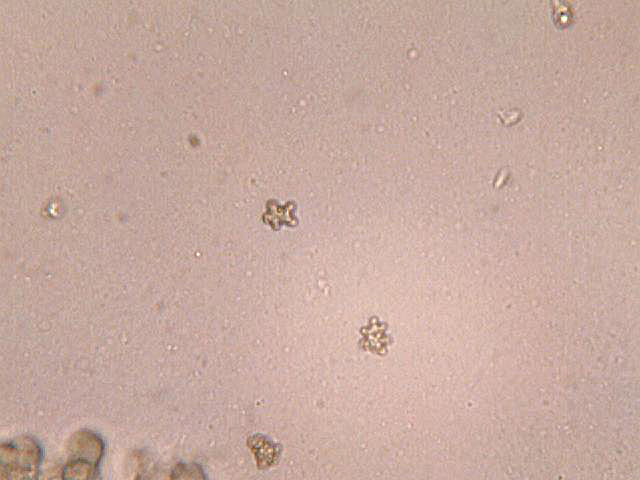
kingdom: Fungi
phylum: Basidiomycota
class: Agaricomycetes
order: Agaricales
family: Inocybaceae
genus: Inocybe
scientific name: Inocybe asterospora
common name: stjernesporet trævlhat
